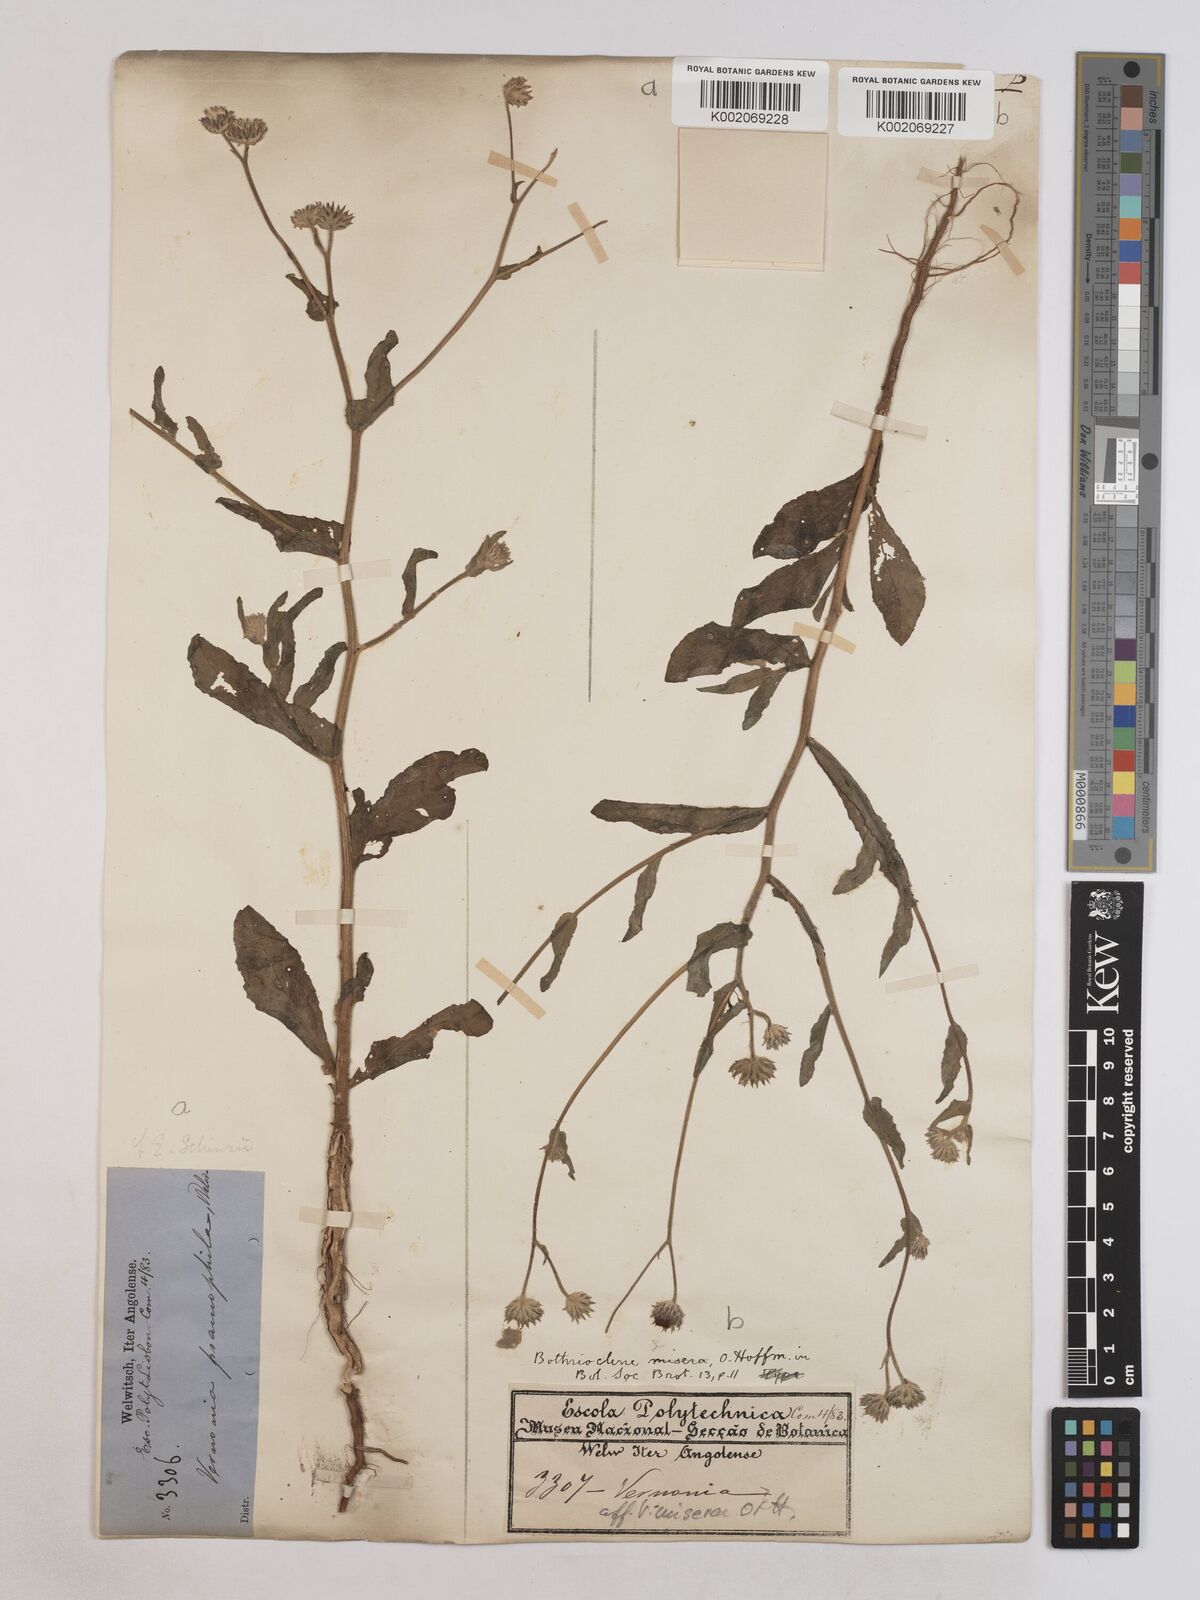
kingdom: Plantae
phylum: Tracheophyta
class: Magnoliopsida
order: Asterales
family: Asteraceae
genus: Erlangea
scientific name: Erlangea misera
